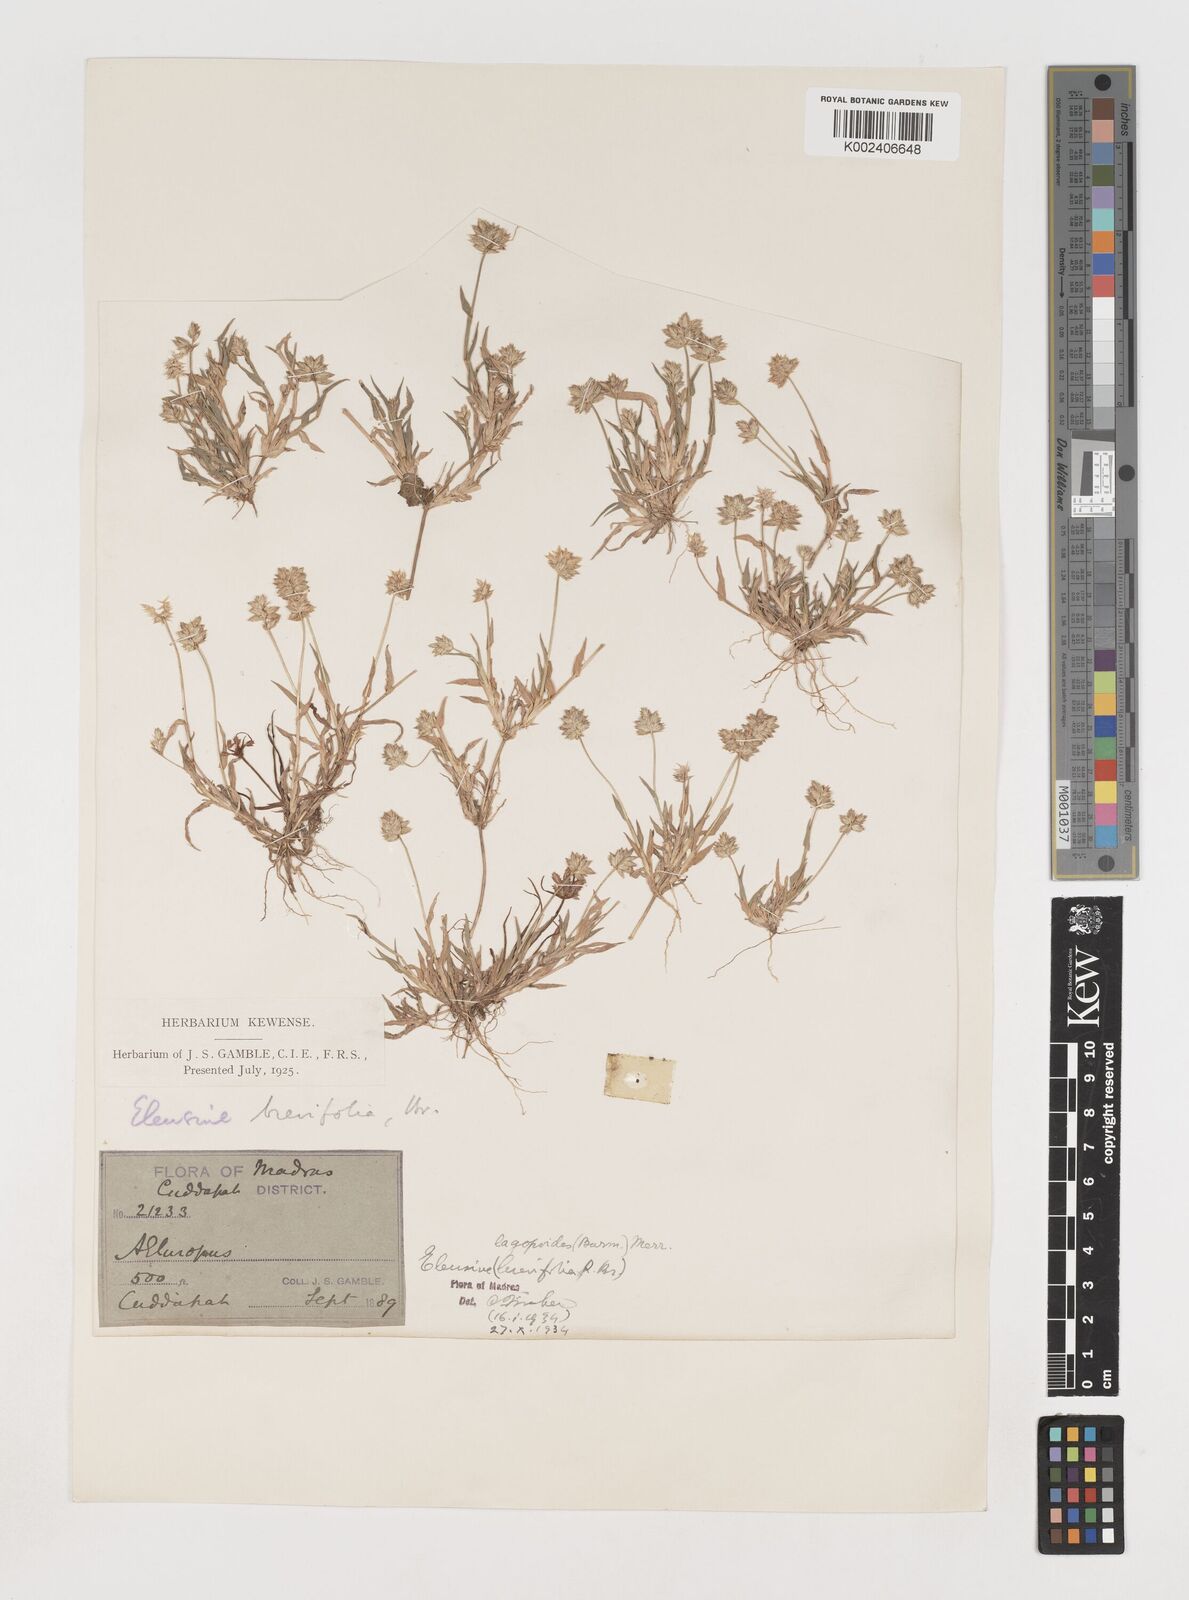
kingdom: Plantae
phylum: Tracheophyta
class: Liliopsida
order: Poales
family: Poaceae
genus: Coelachyrum
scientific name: Coelachyrum lagopoides
